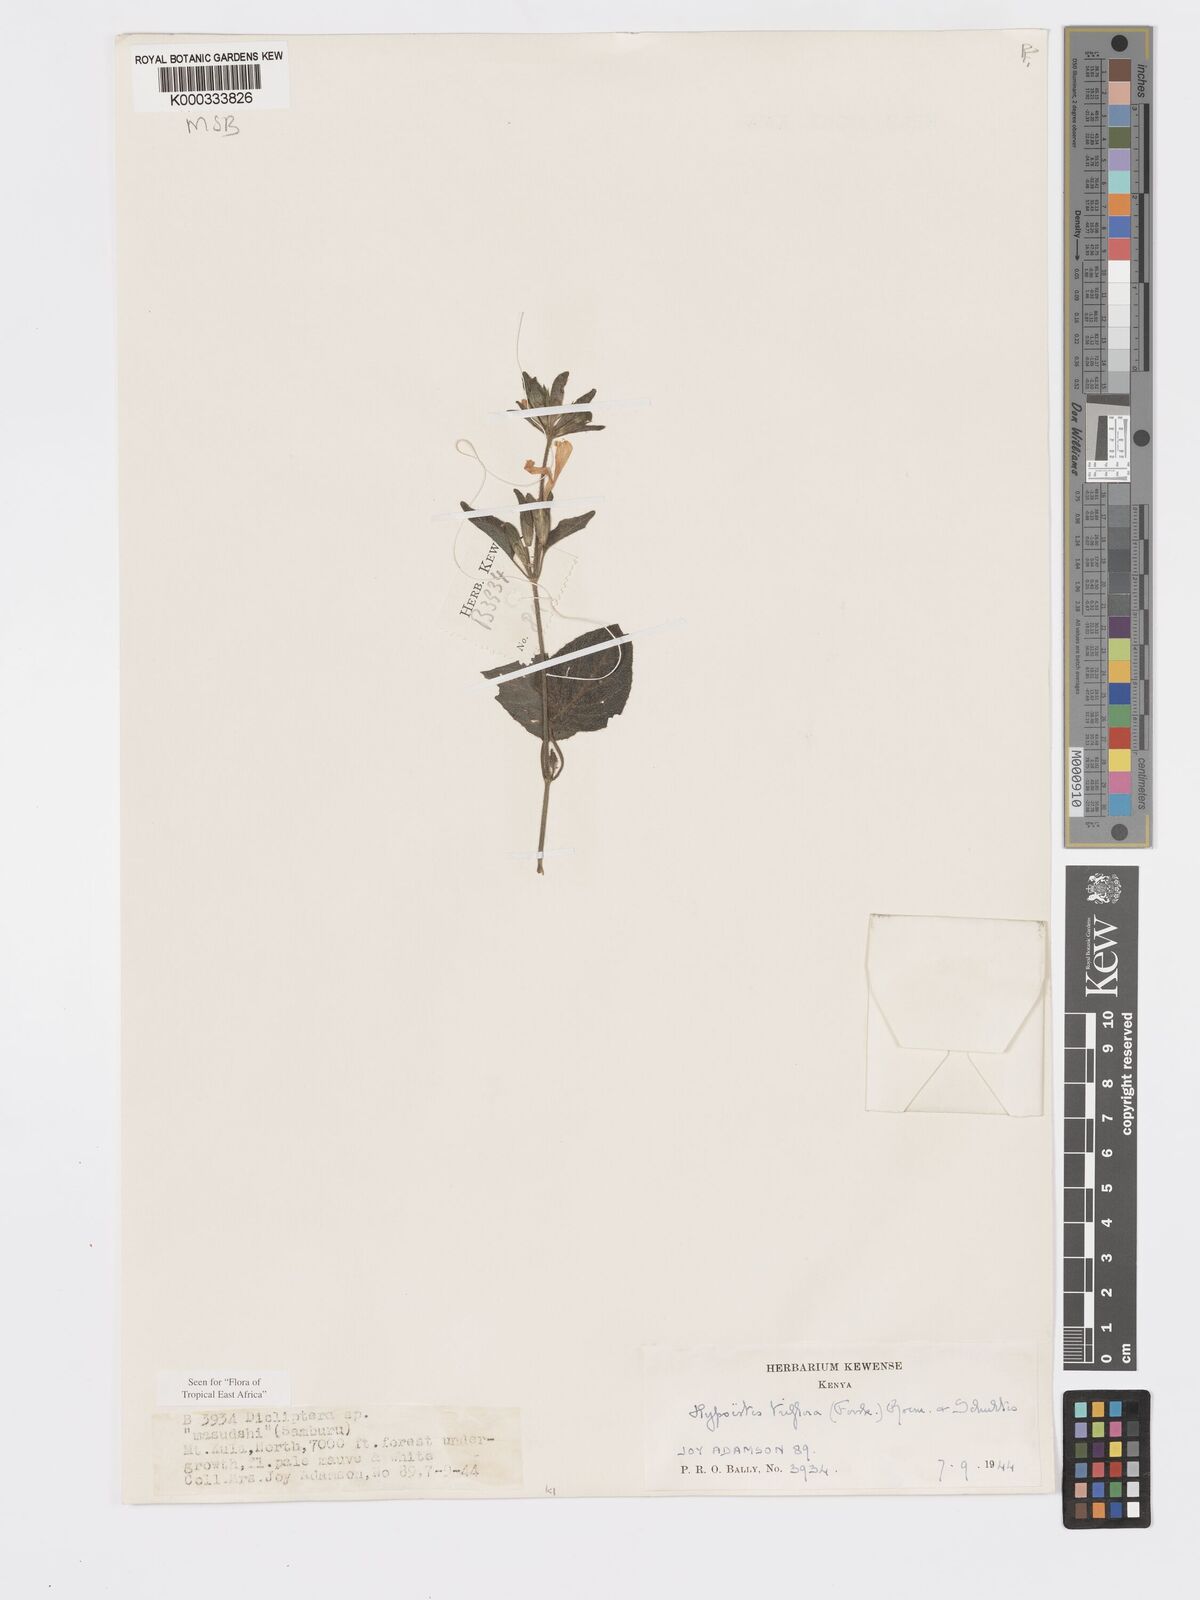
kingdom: Plantae
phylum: Tracheophyta
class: Magnoliopsida
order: Lamiales
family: Acanthaceae
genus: Hypoestes
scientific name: Hypoestes triflora
